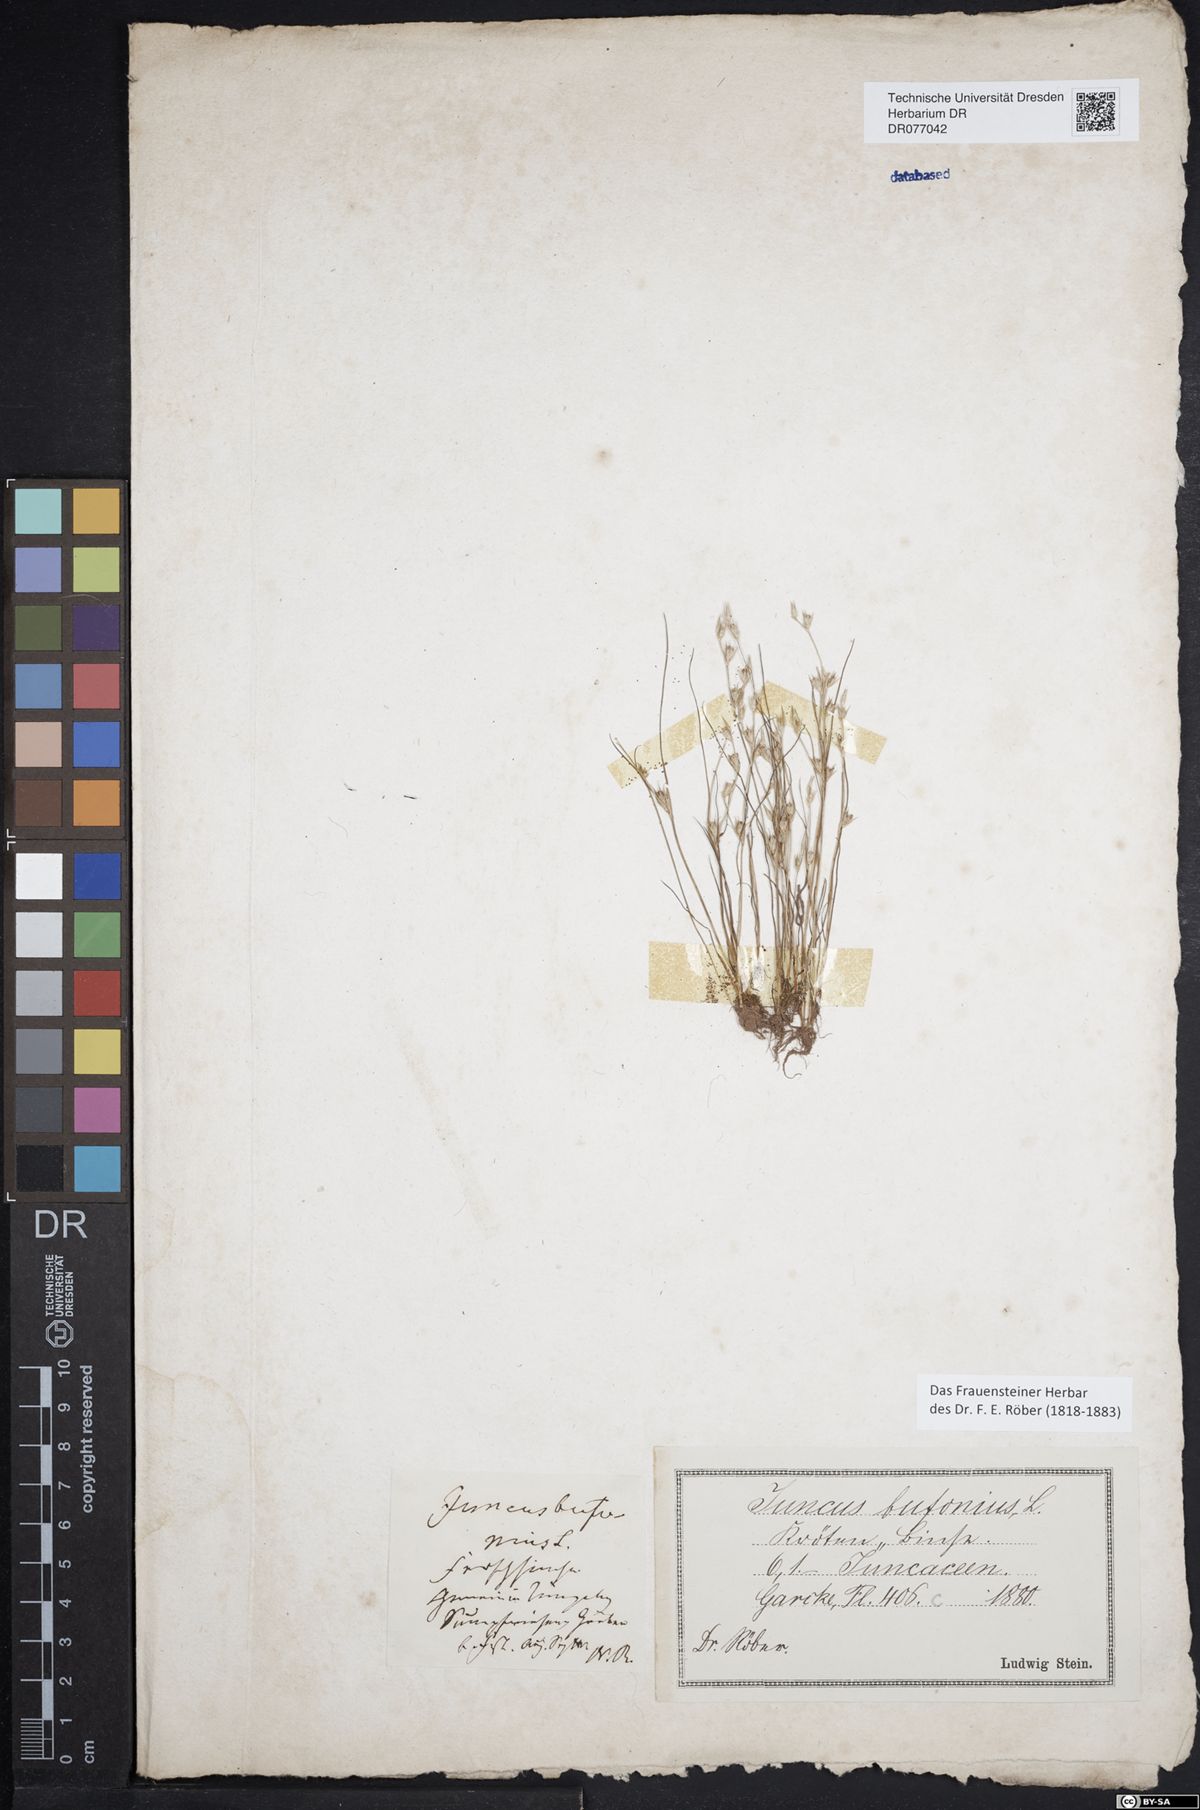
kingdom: Plantae
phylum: Tracheophyta
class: Liliopsida
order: Poales
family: Juncaceae
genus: Juncus
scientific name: Juncus bufonius
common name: Toad rush
